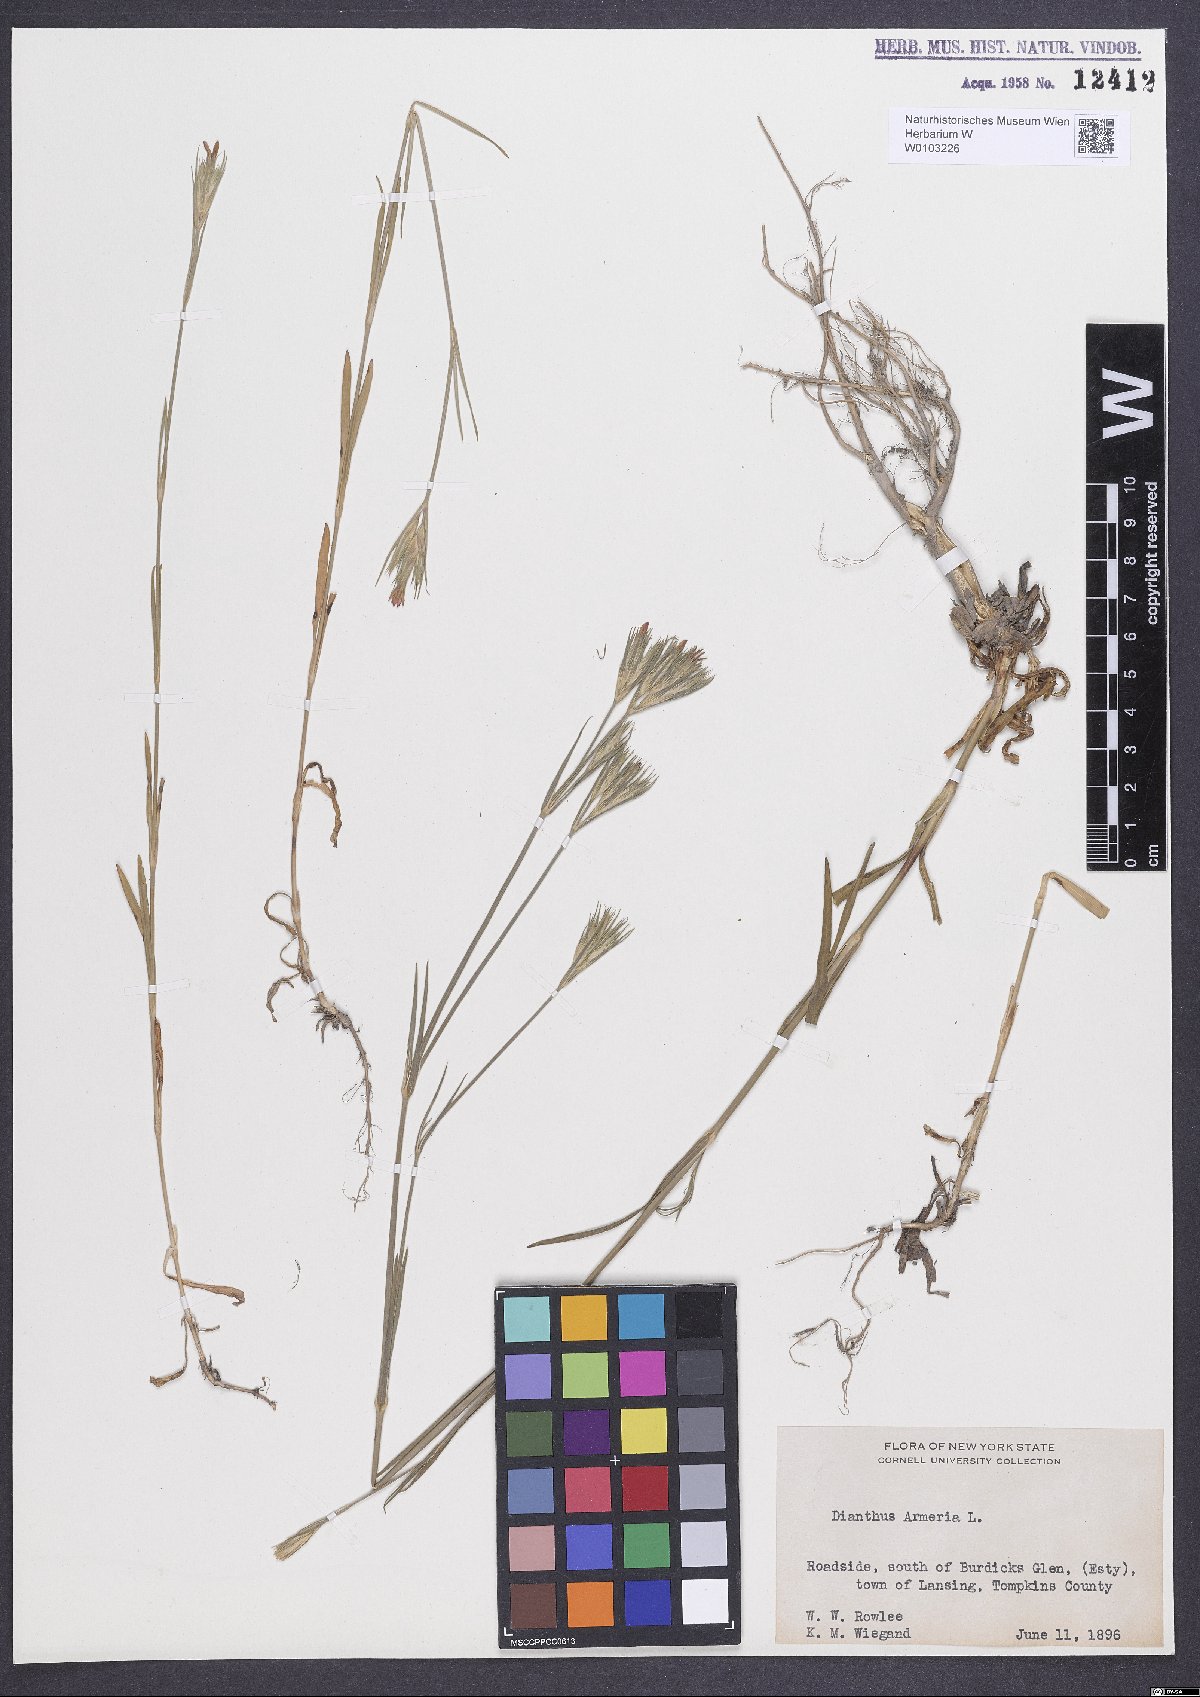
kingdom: Plantae
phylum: Tracheophyta
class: Magnoliopsida
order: Caryophyllales
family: Caryophyllaceae
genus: Dianthus
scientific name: Dianthus armeria
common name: Deptford pink
